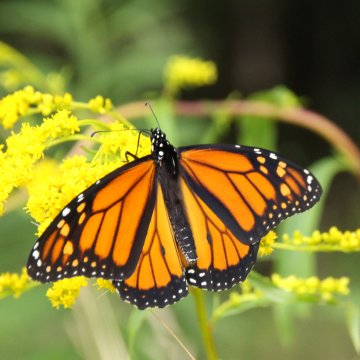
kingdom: Animalia
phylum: Arthropoda
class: Insecta
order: Lepidoptera
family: Nymphalidae
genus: Danaus
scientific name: Danaus plexippus
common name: Monarch
